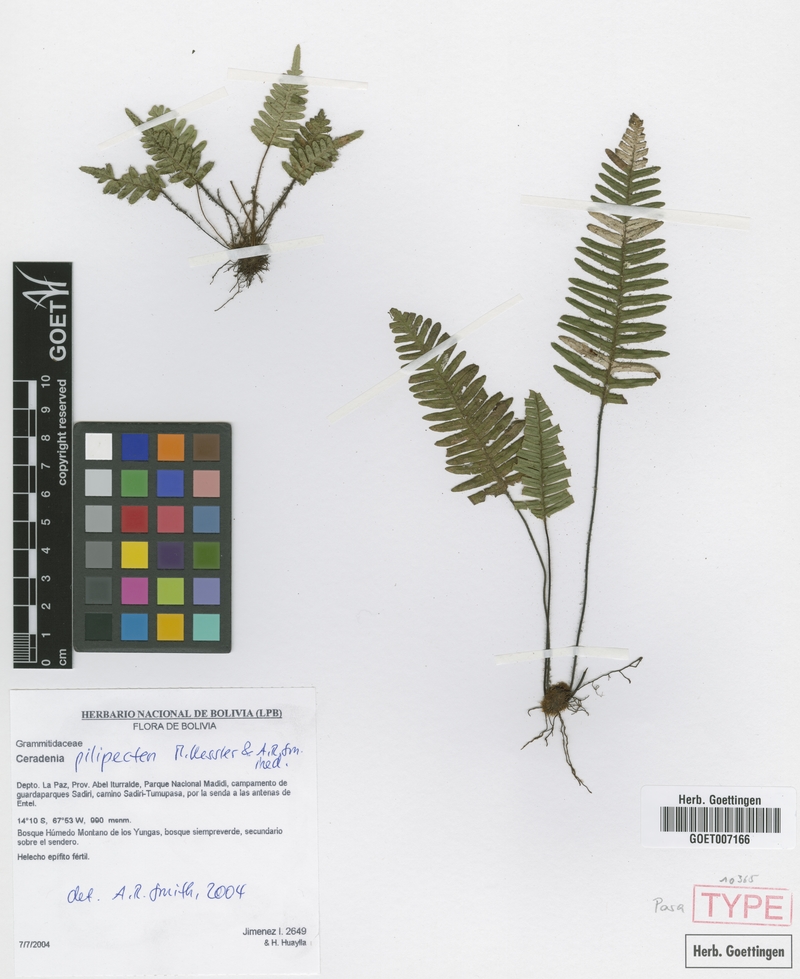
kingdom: Plantae
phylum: Tracheophyta
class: Polypodiopsida
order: Polypodiales
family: Polypodiaceae
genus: Ceradenia
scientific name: Ceradenia pilipecten
